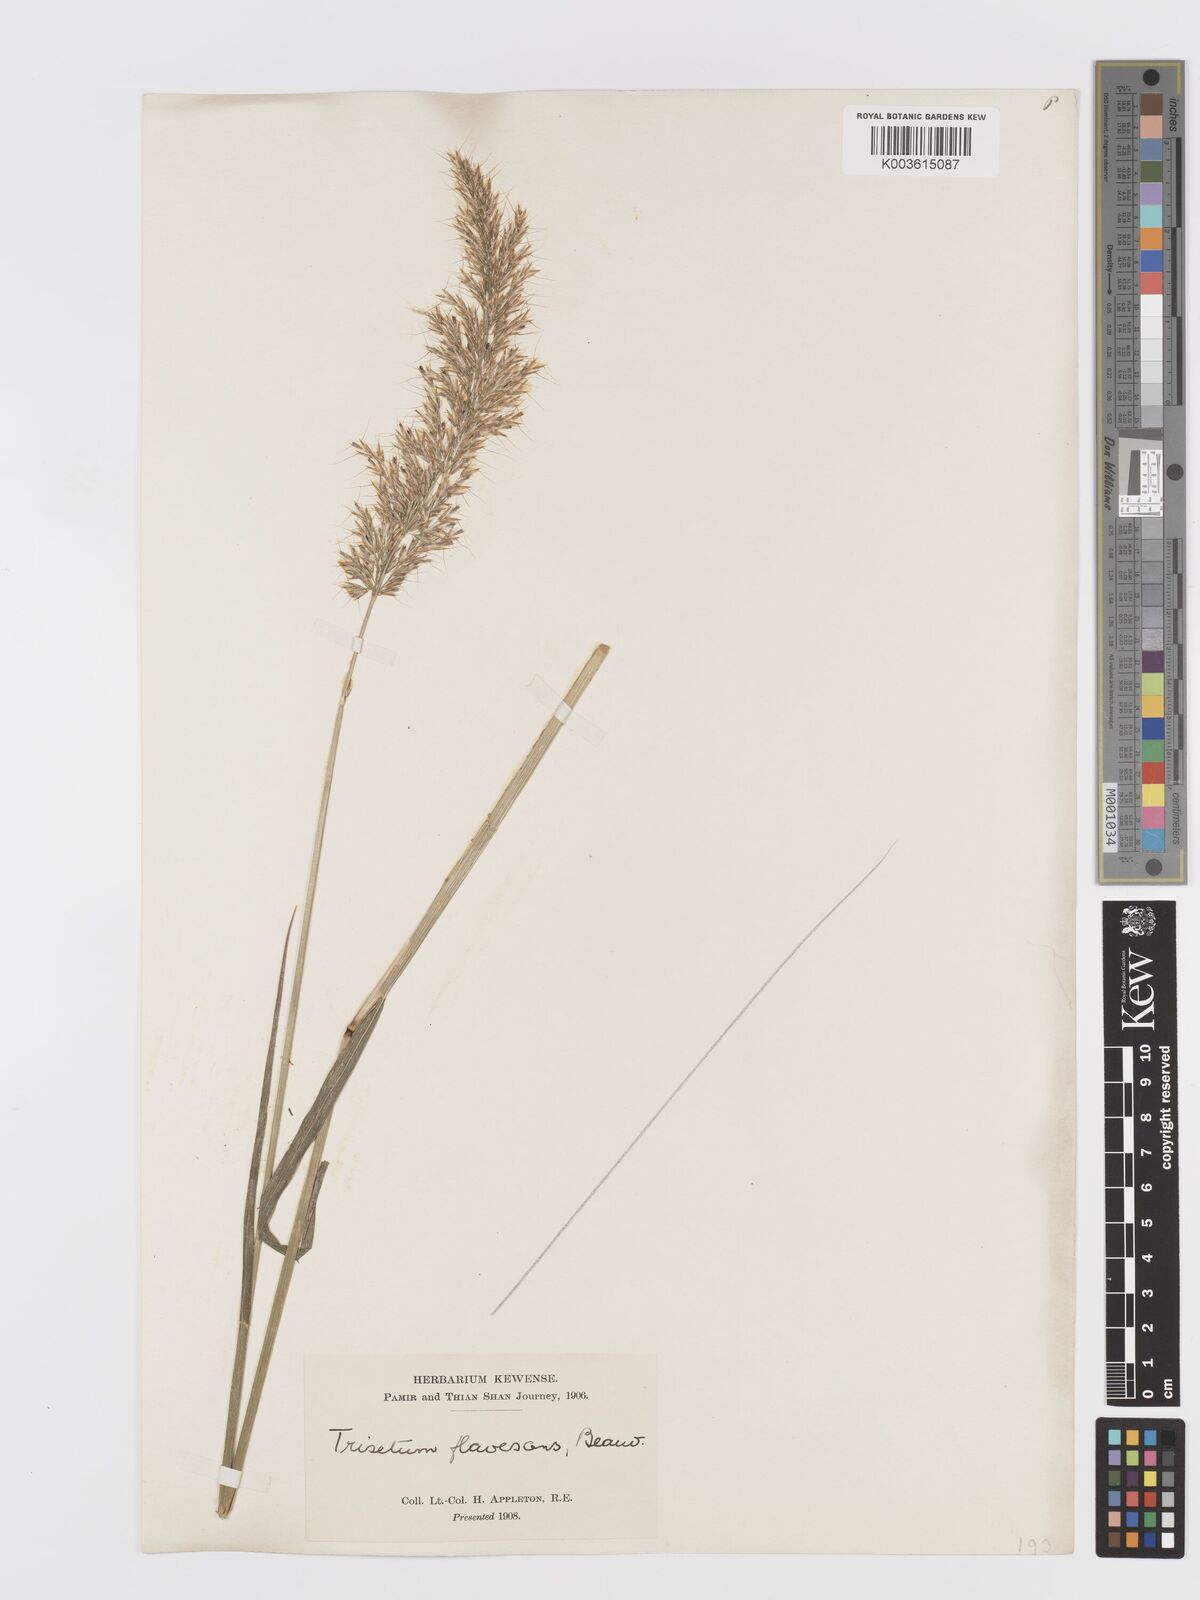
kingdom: Plantae
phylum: Tracheophyta
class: Liliopsida
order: Poales
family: Poaceae
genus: Sibirotrisetum
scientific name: Sibirotrisetum sibiricum
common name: Siberian false oat
